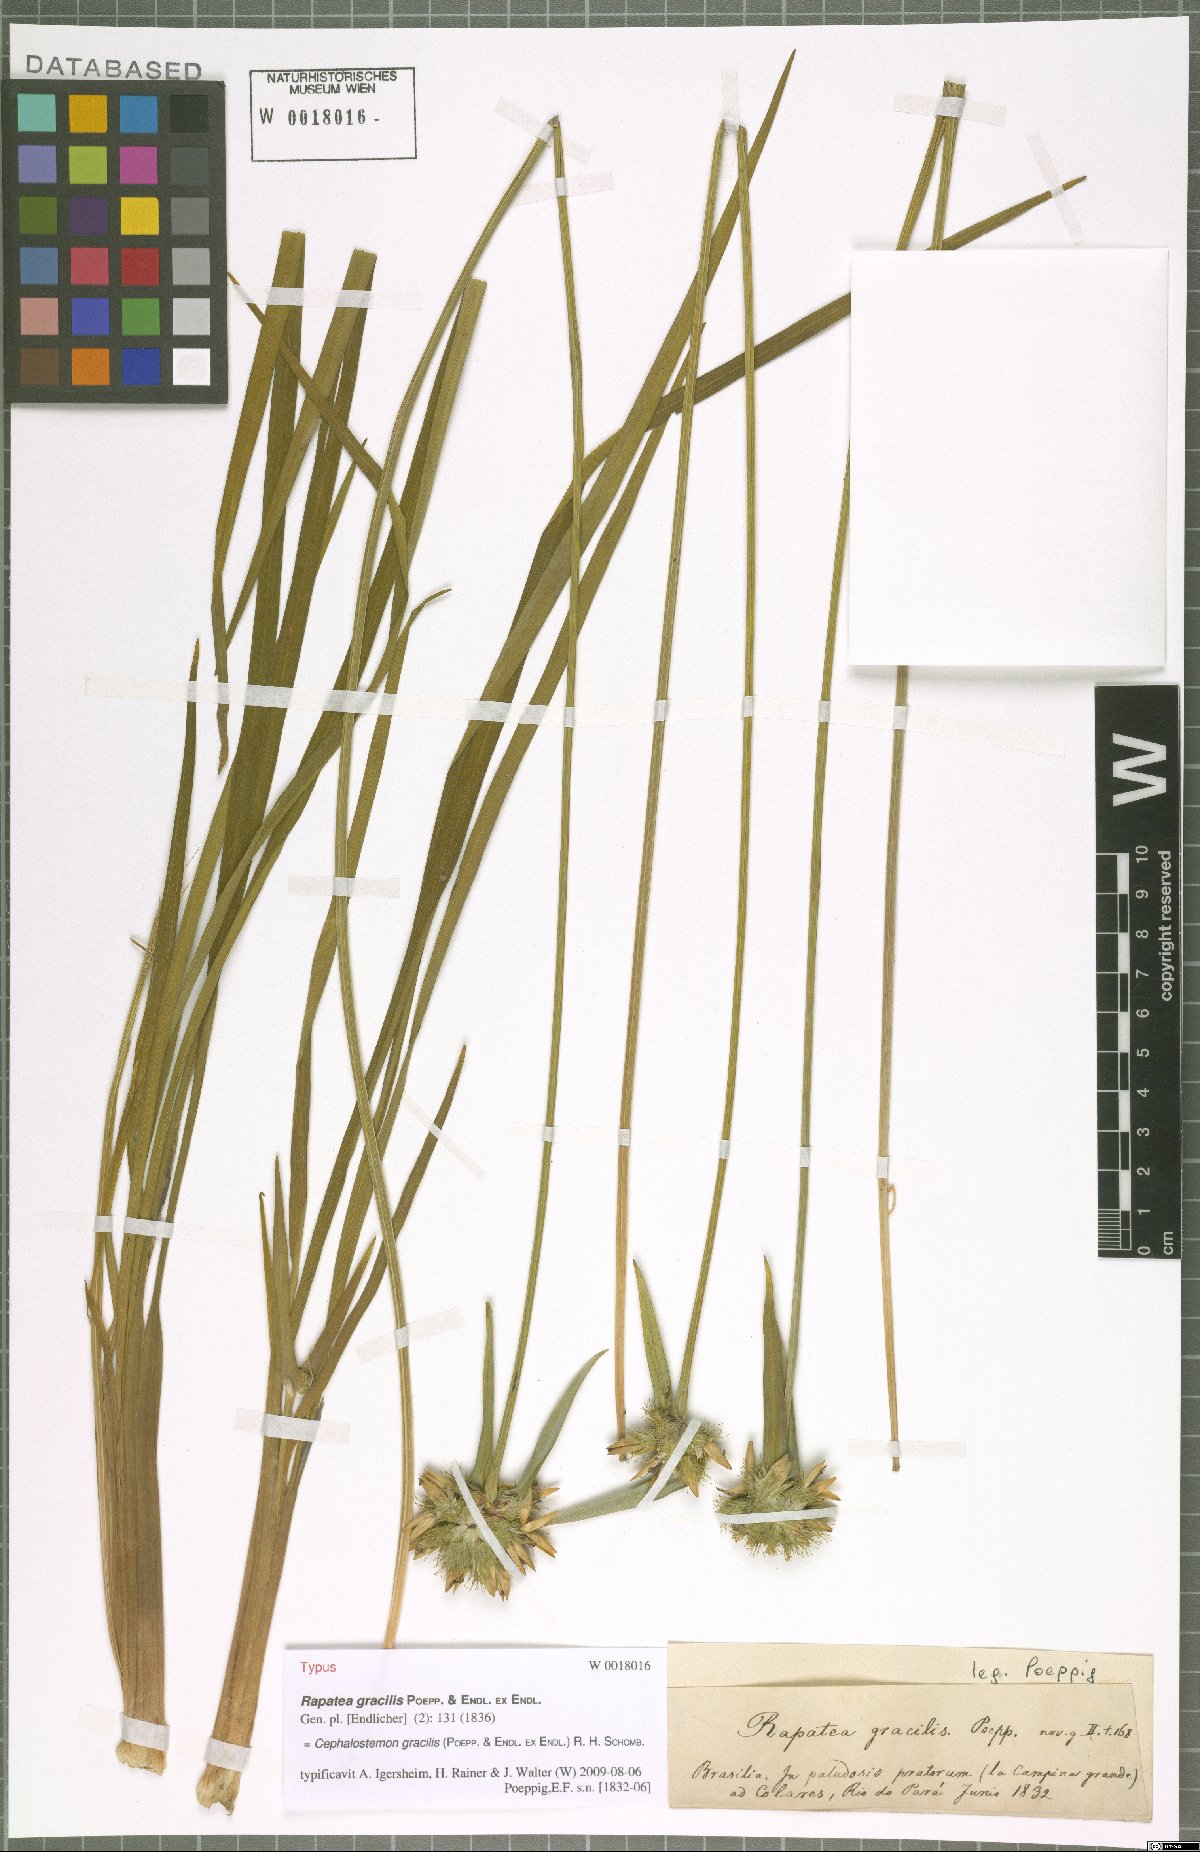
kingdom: Plantae
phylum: Tracheophyta
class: Liliopsida
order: Poales
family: Rapateaceae
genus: Cephalostemon
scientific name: Cephalostemon gracilis
